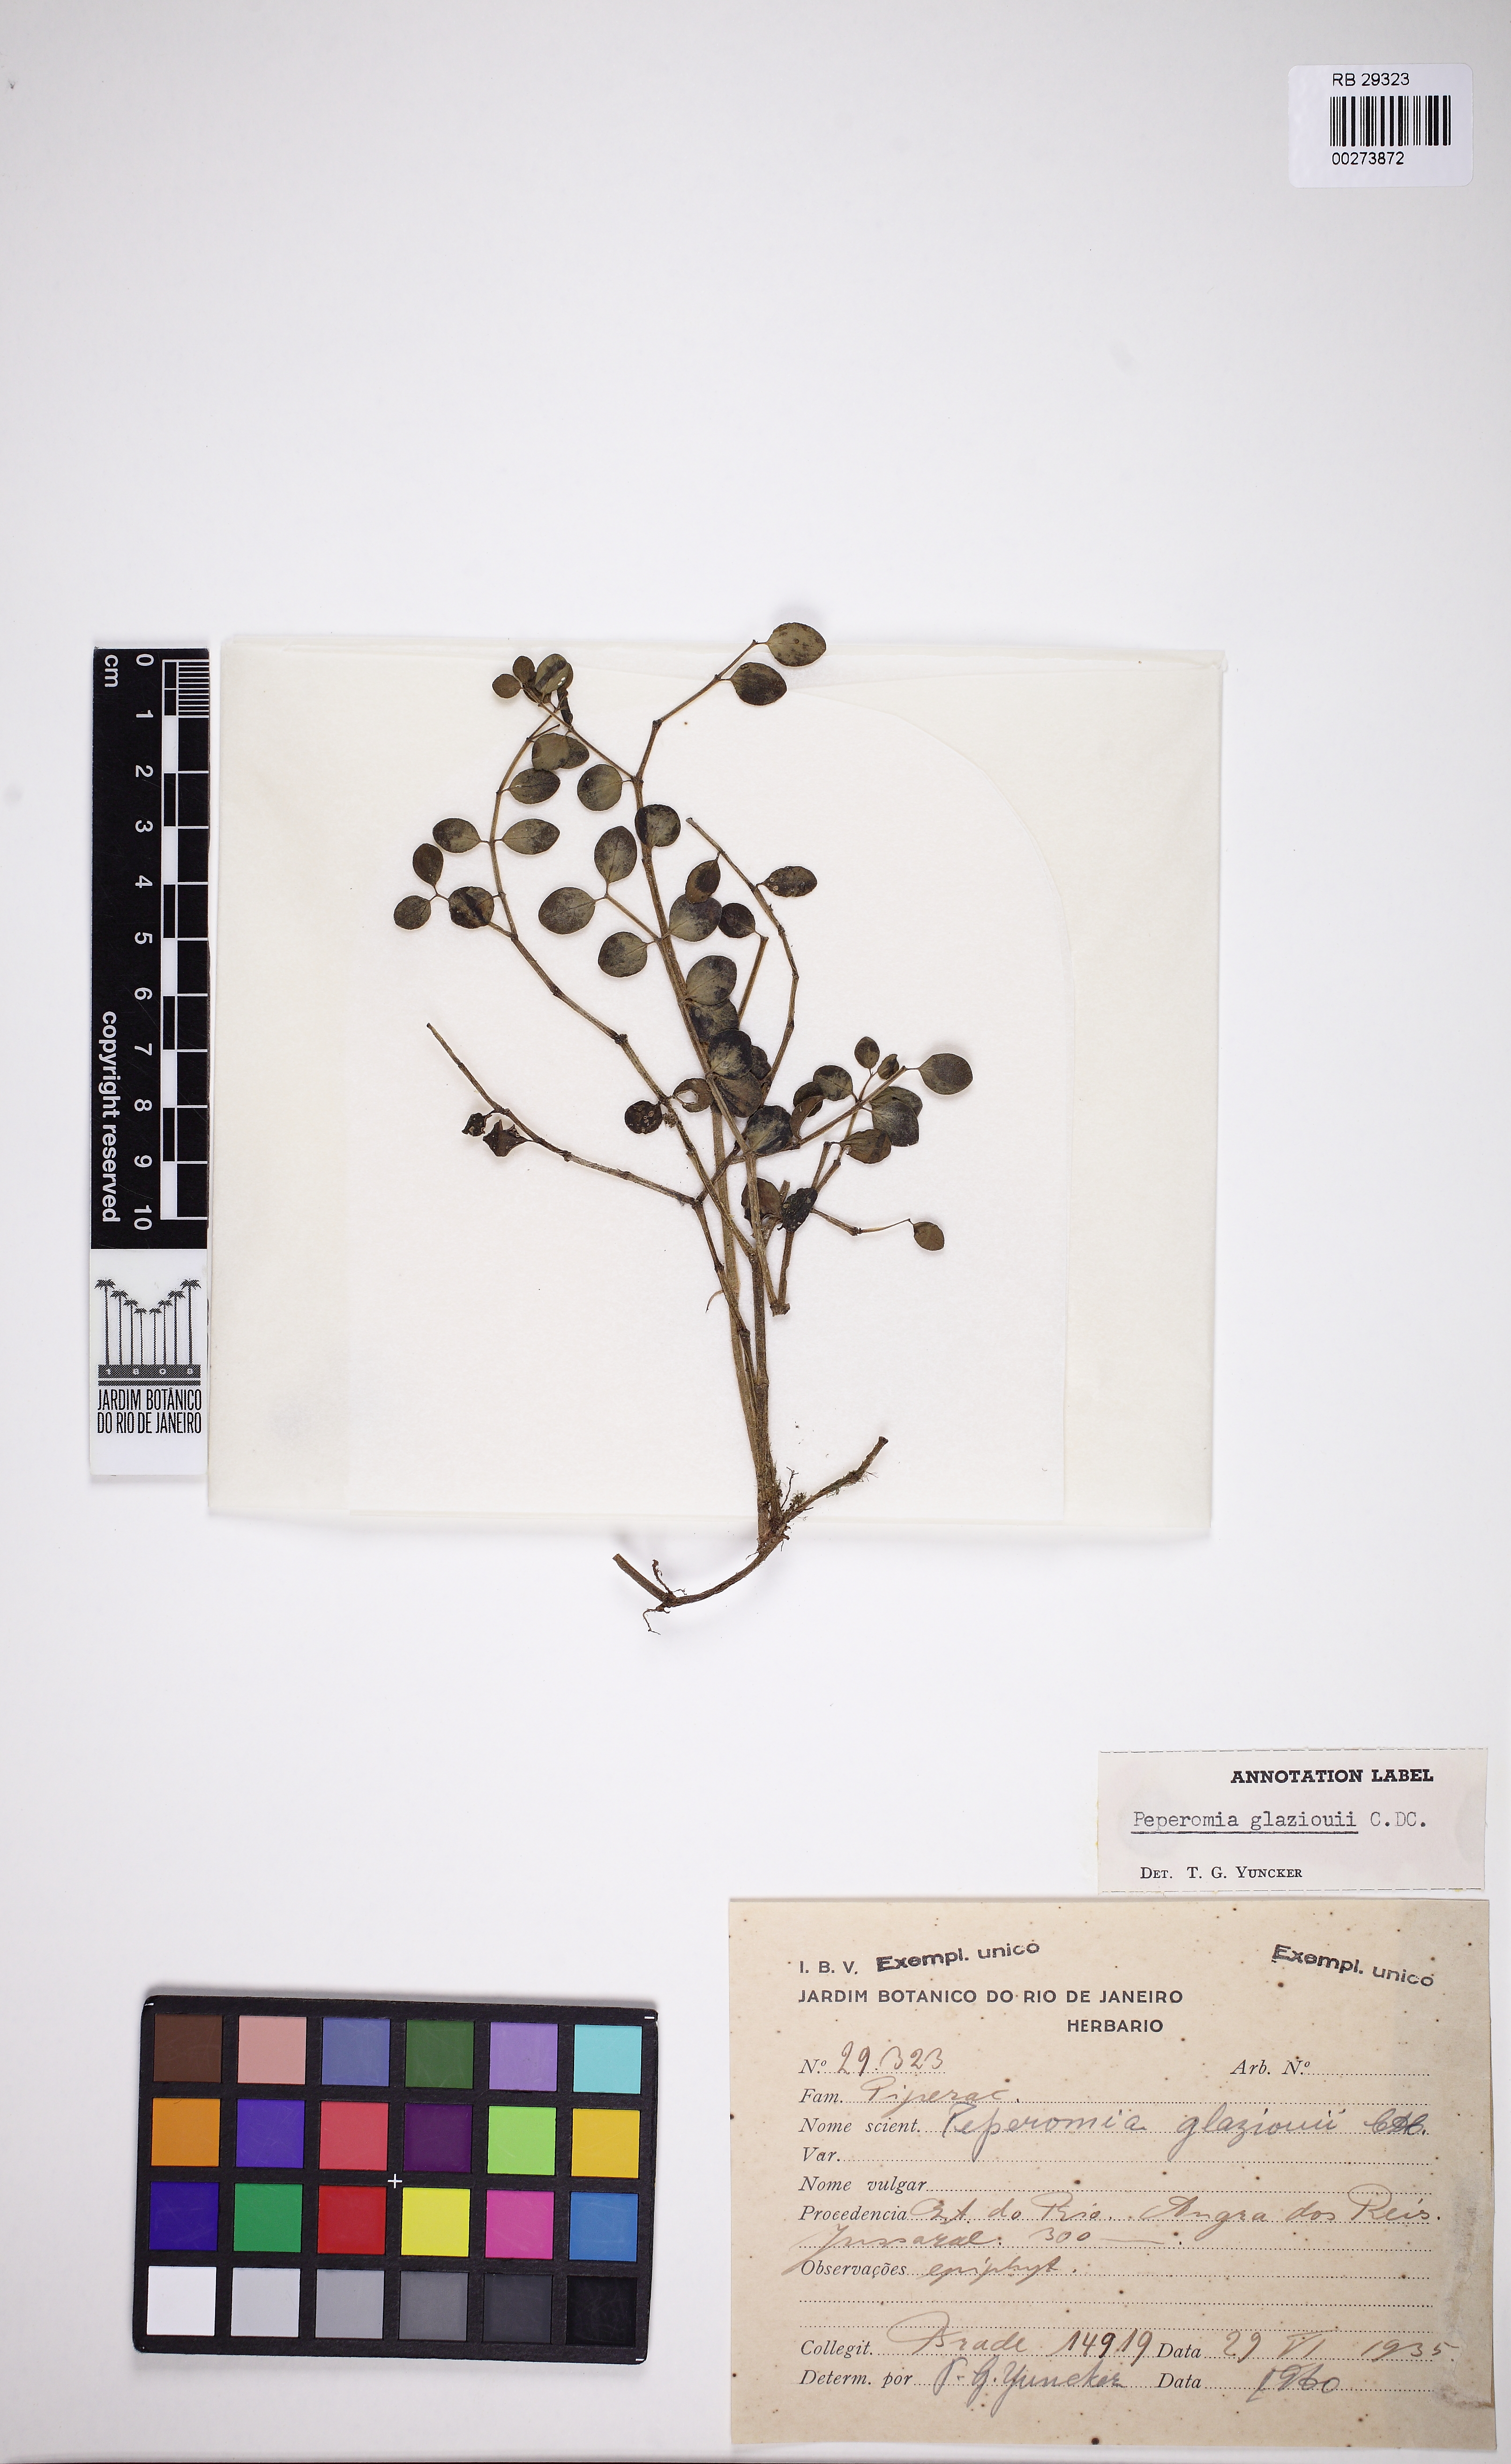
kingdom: Plantae
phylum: Tracheophyta
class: Magnoliopsida
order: Piperales
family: Piperaceae
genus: Peperomia
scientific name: Peperomia glazioui
